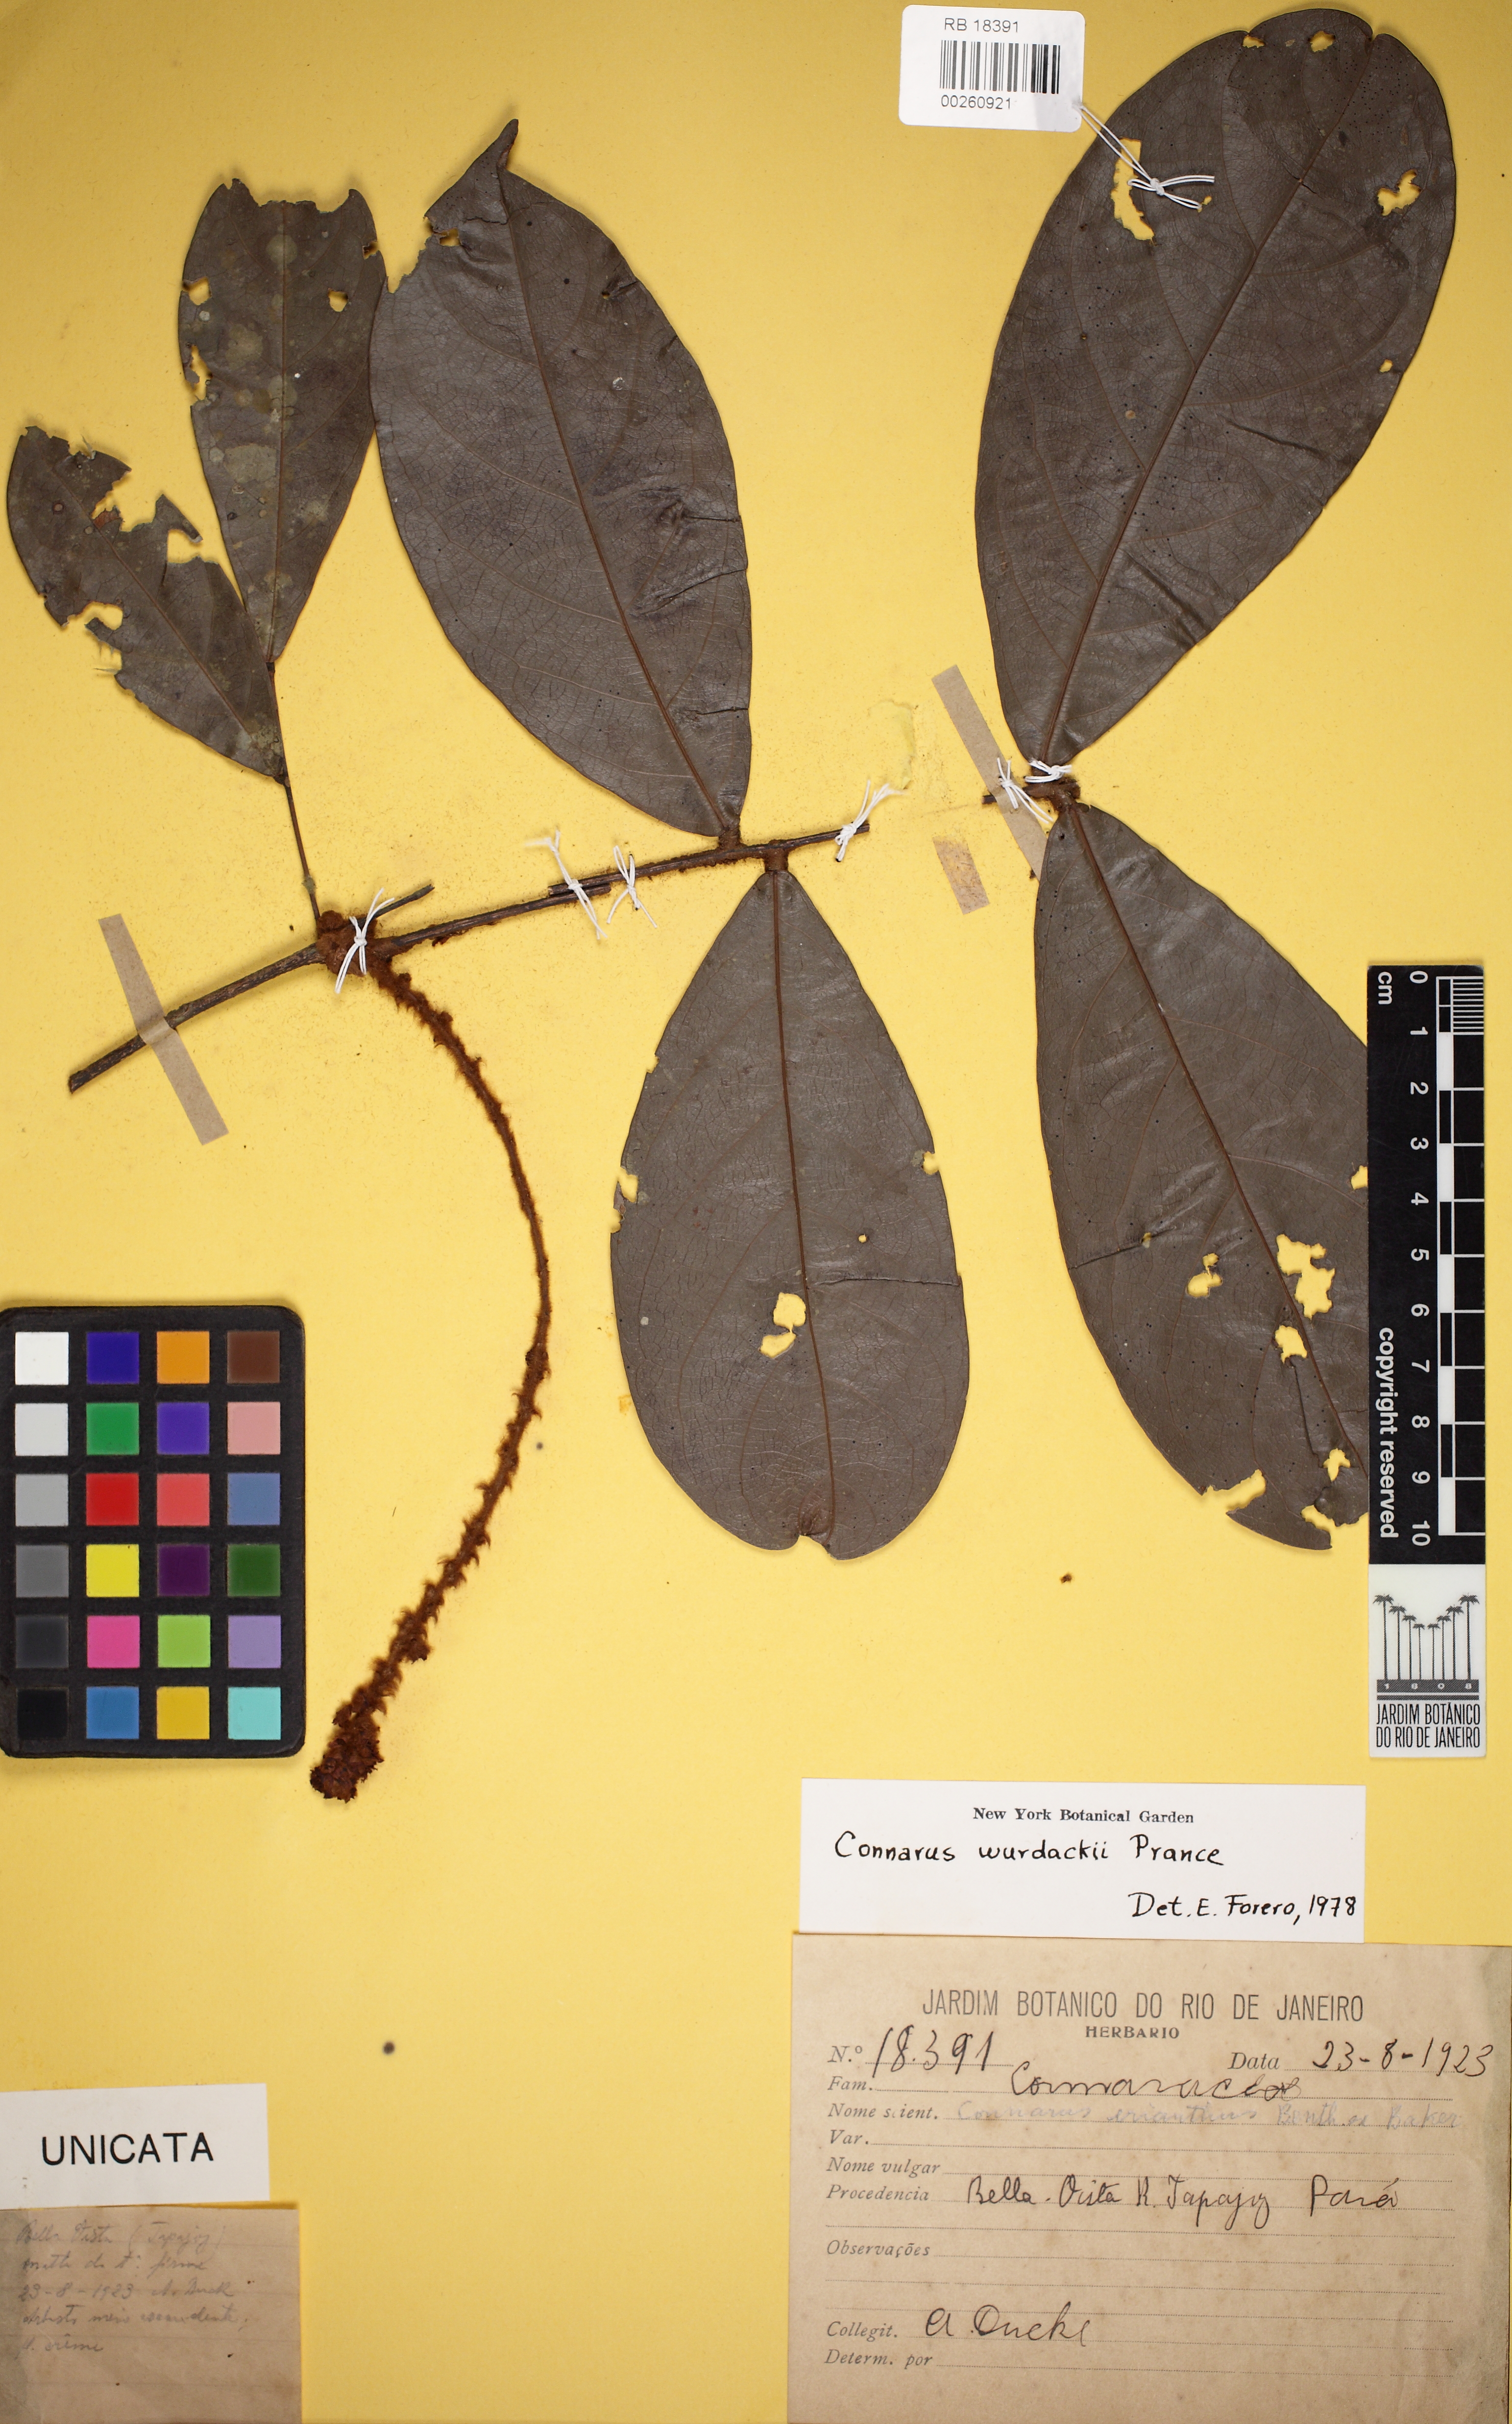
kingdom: Plantae
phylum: Tracheophyta
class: Magnoliopsida
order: Oxalidales
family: Connaraceae
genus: Connarus
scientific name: Connarus wurdackii
